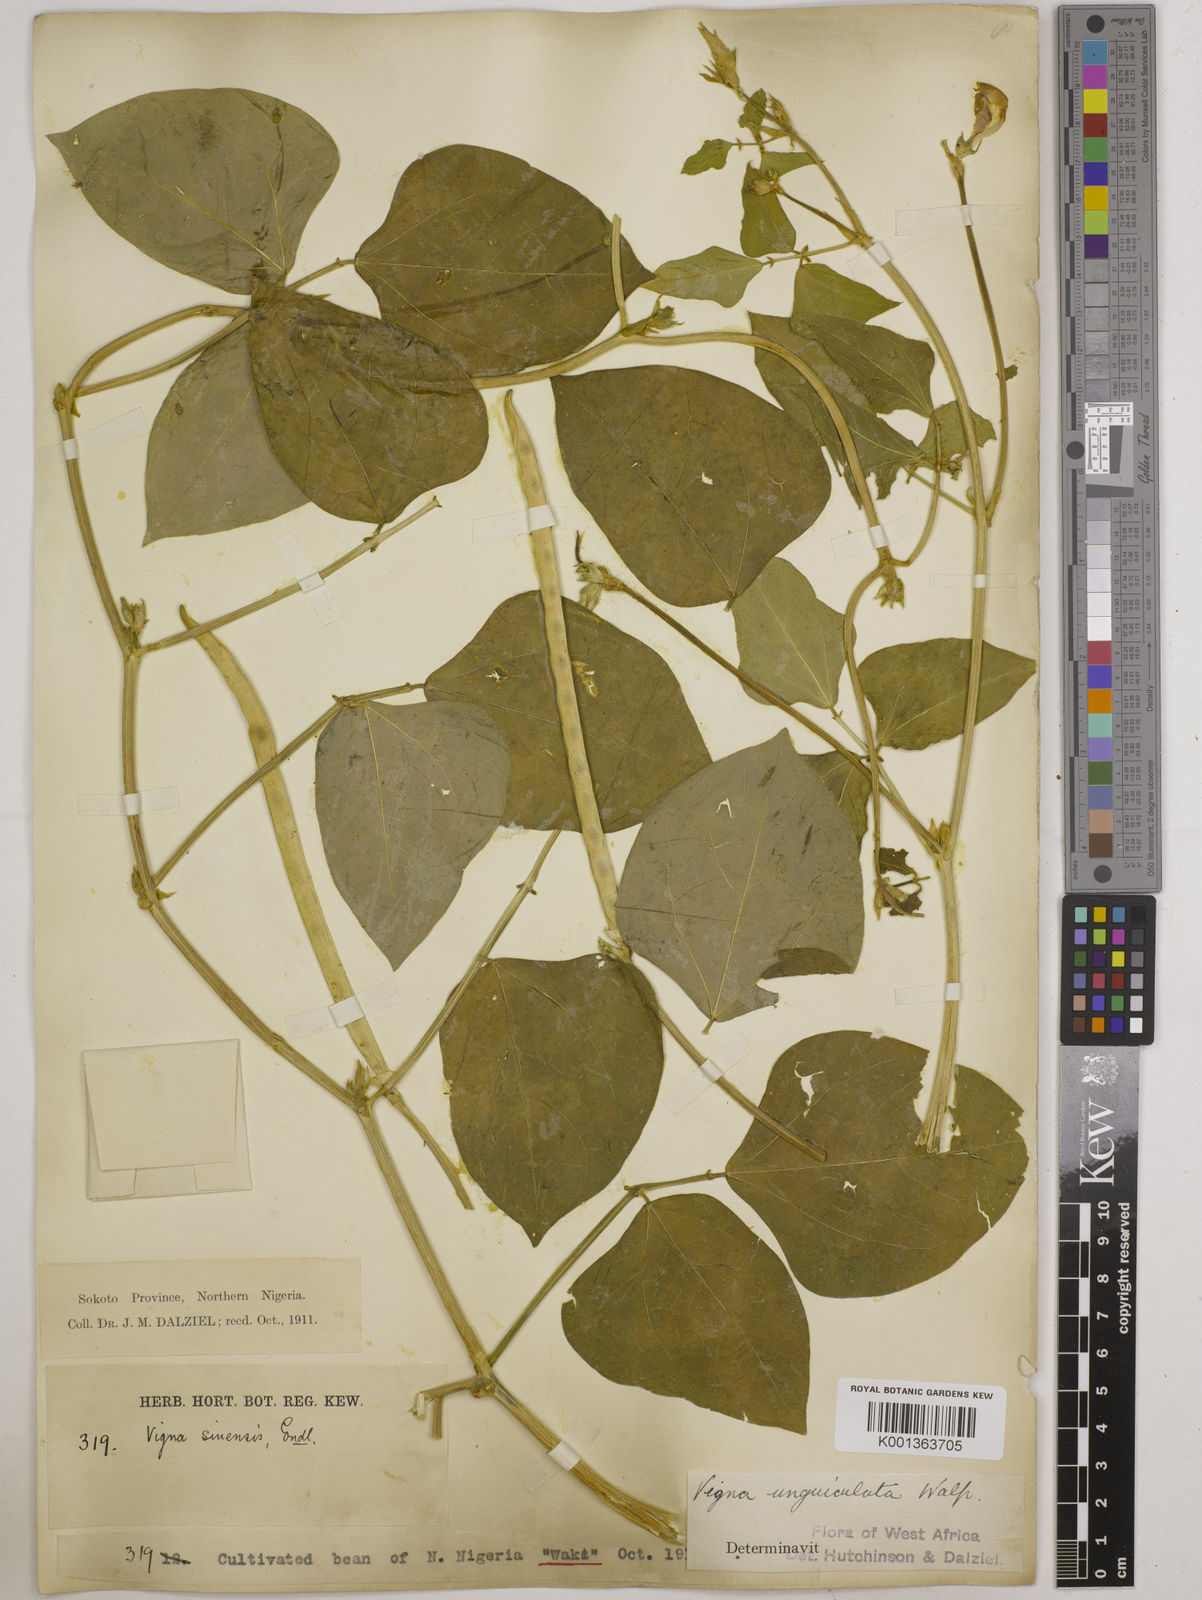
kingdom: Plantae
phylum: Tracheophyta
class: Magnoliopsida
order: Fabales
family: Fabaceae
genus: Vigna
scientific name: Vigna unguiculata
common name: Cowpea
